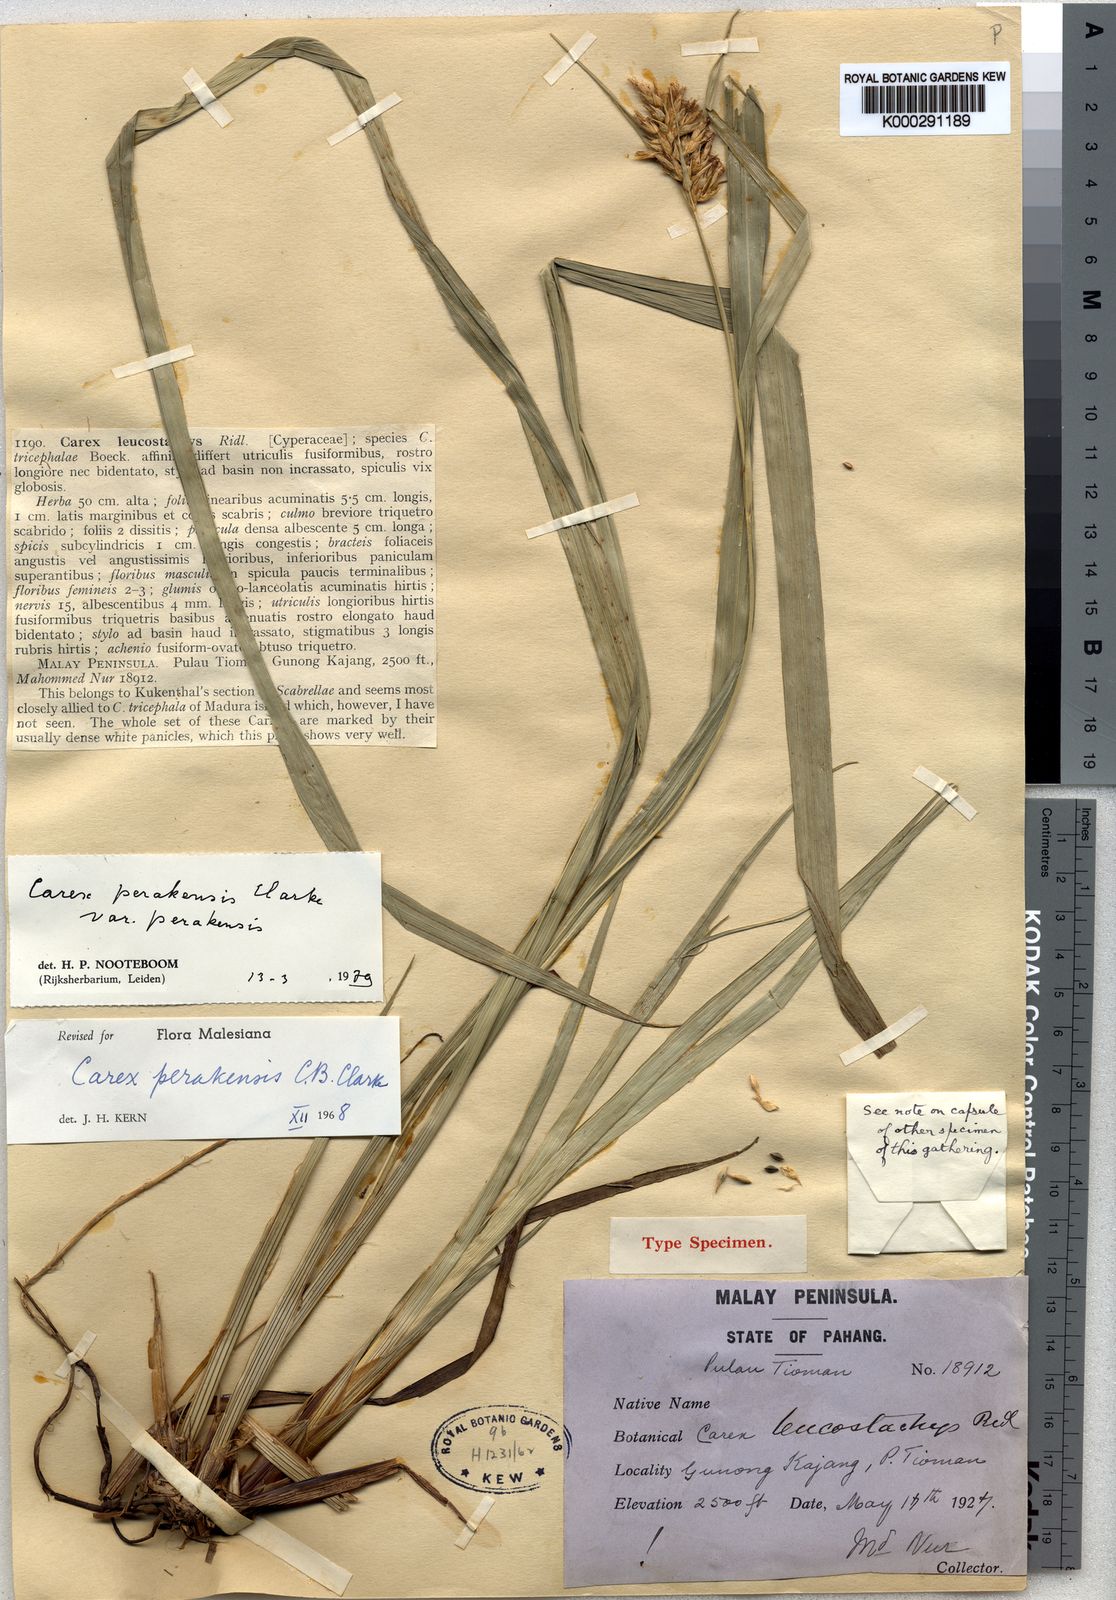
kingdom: Plantae
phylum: Tracheophyta
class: Liliopsida
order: Poales
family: Cyperaceae
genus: Carex
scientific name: Carex perakensis
